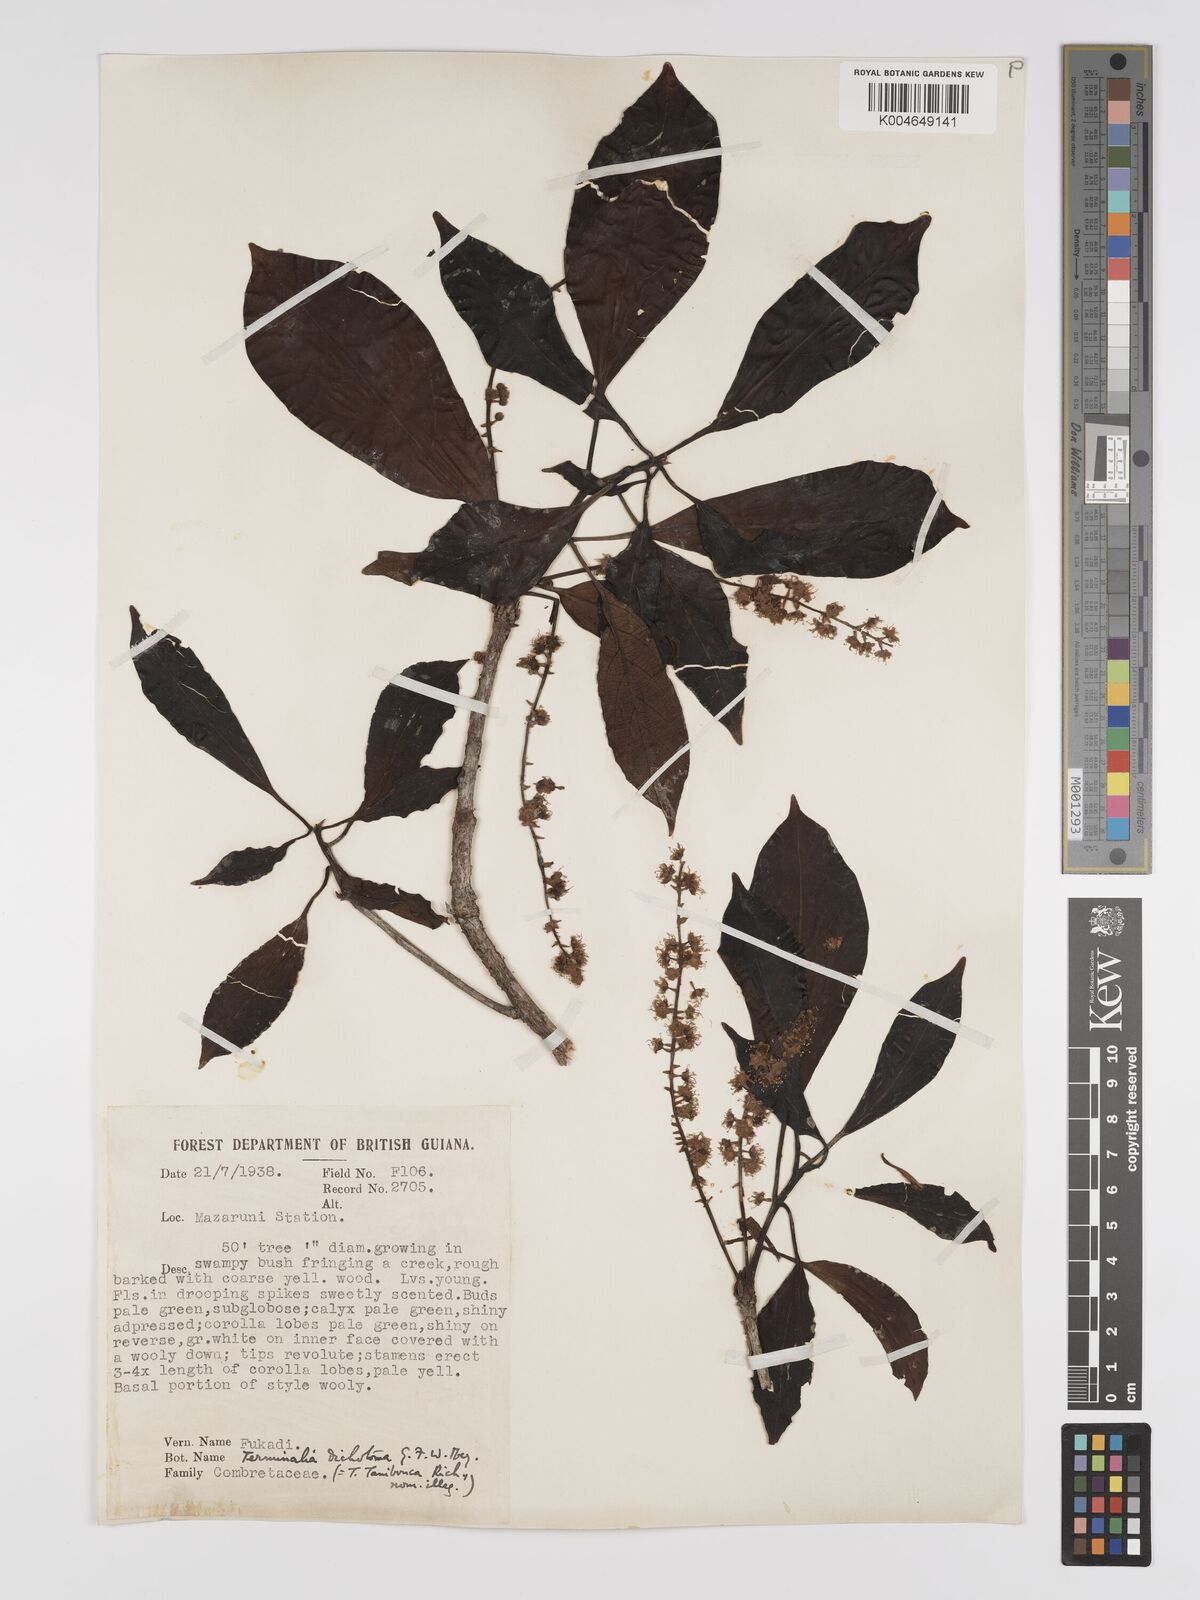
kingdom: Plantae
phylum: Tracheophyta
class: Magnoliopsida
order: Myrtales
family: Combretaceae
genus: Terminalia
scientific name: Terminalia dichotoma
